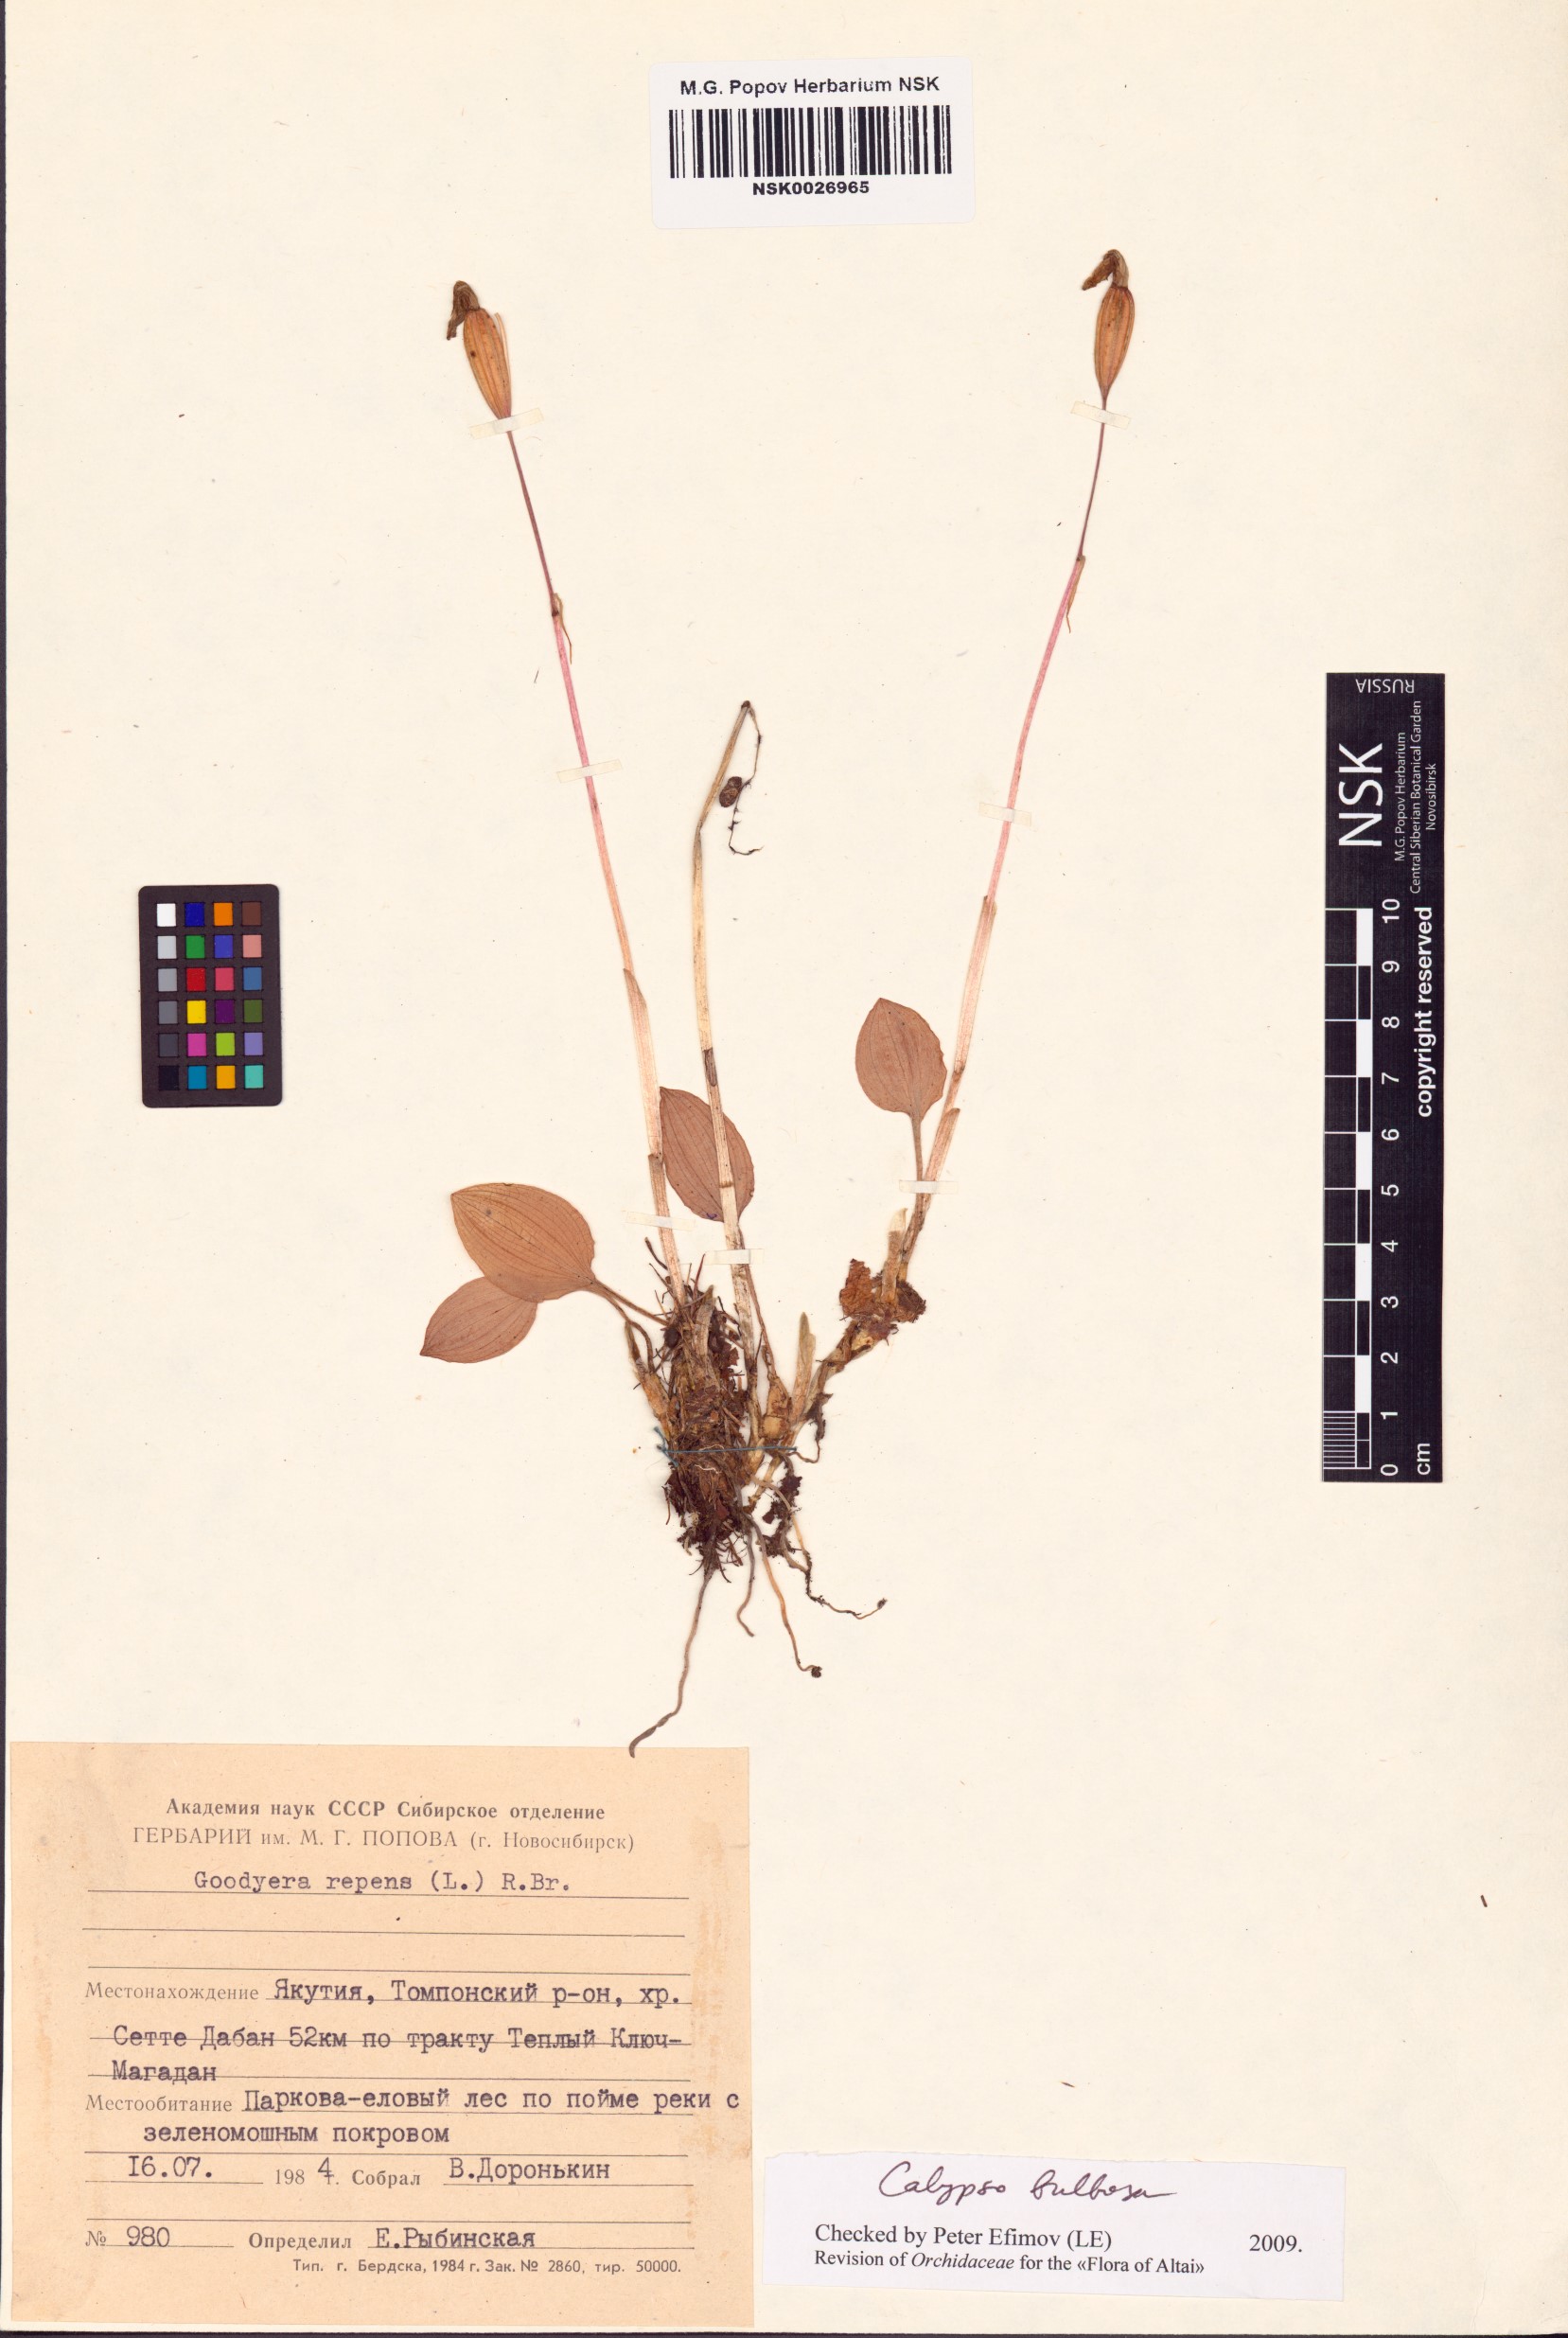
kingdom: Plantae
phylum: Tracheophyta
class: Liliopsida
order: Asparagales
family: Orchidaceae
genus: Calypso
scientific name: Calypso bulbosa
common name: Calypso
